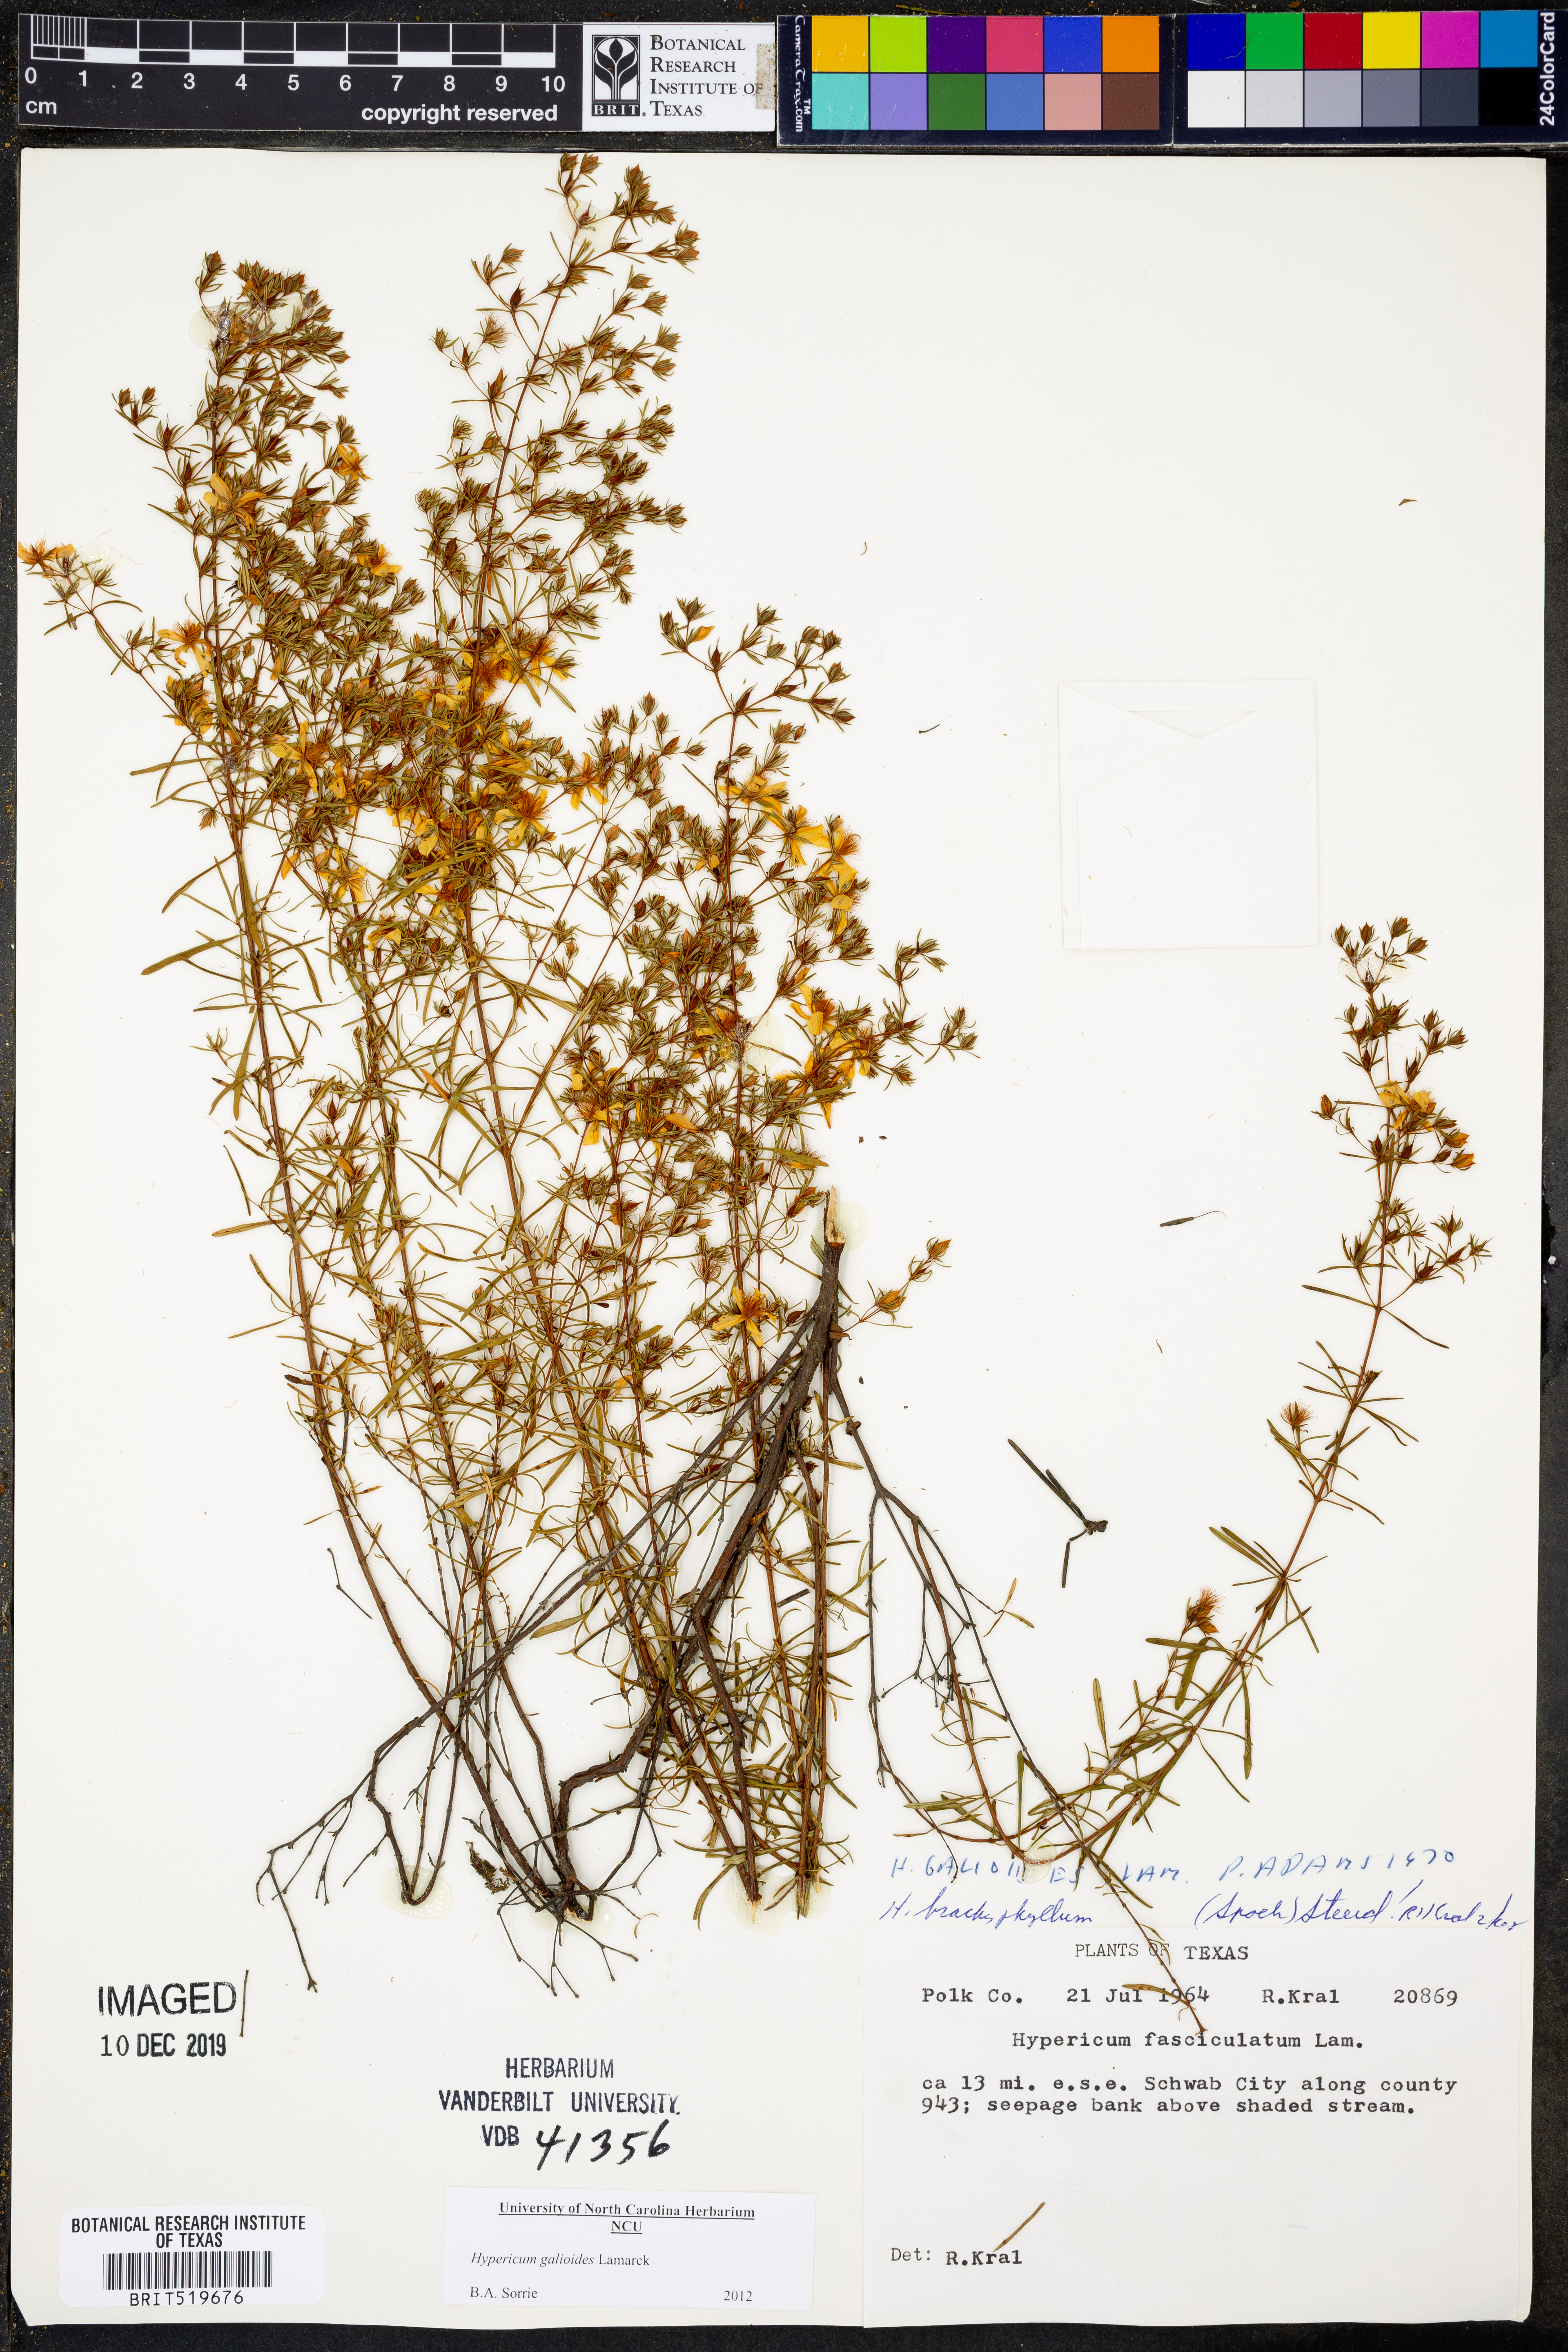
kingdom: Plantae
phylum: Tracheophyta
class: Magnoliopsida
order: Malpighiales
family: Hypericaceae
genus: Hypericum
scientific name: Hypericum galioides
